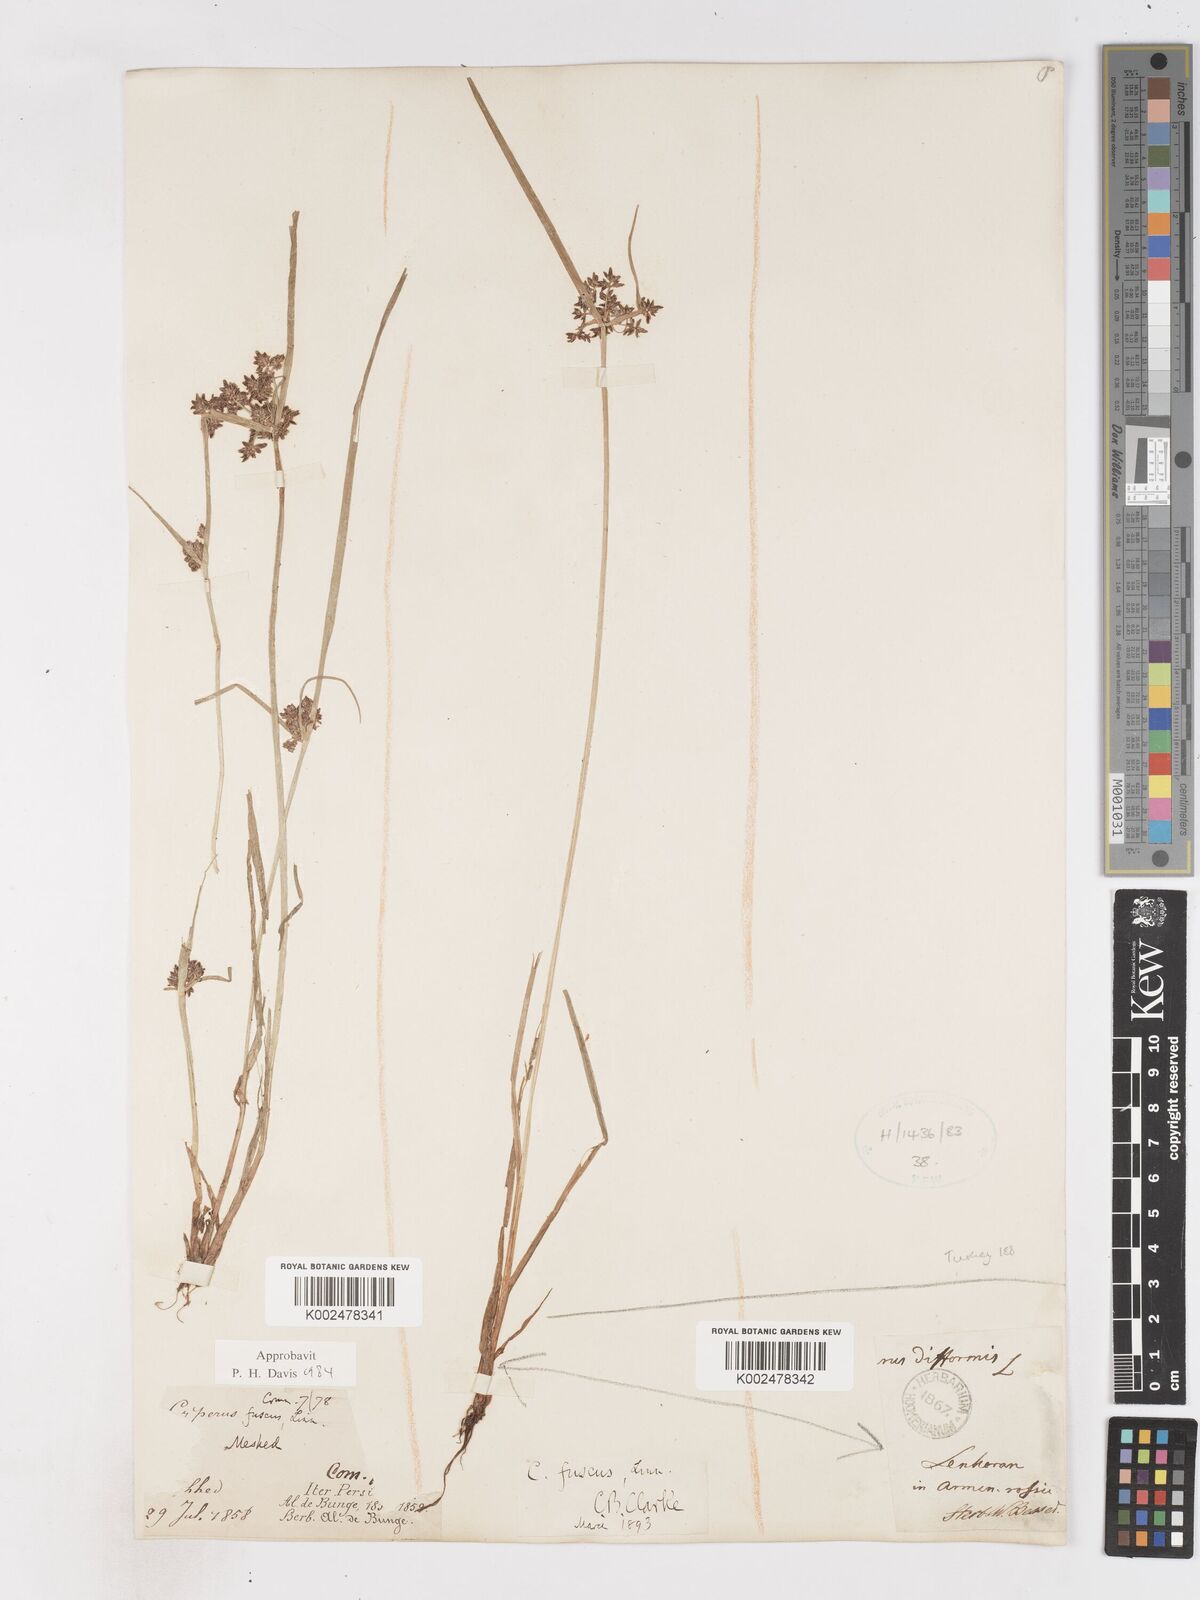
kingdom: Plantae
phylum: Tracheophyta
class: Liliopsida
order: Poales
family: Cyperaceae
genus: Cyperus
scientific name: Cyperus fuscus
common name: Brown galingale
